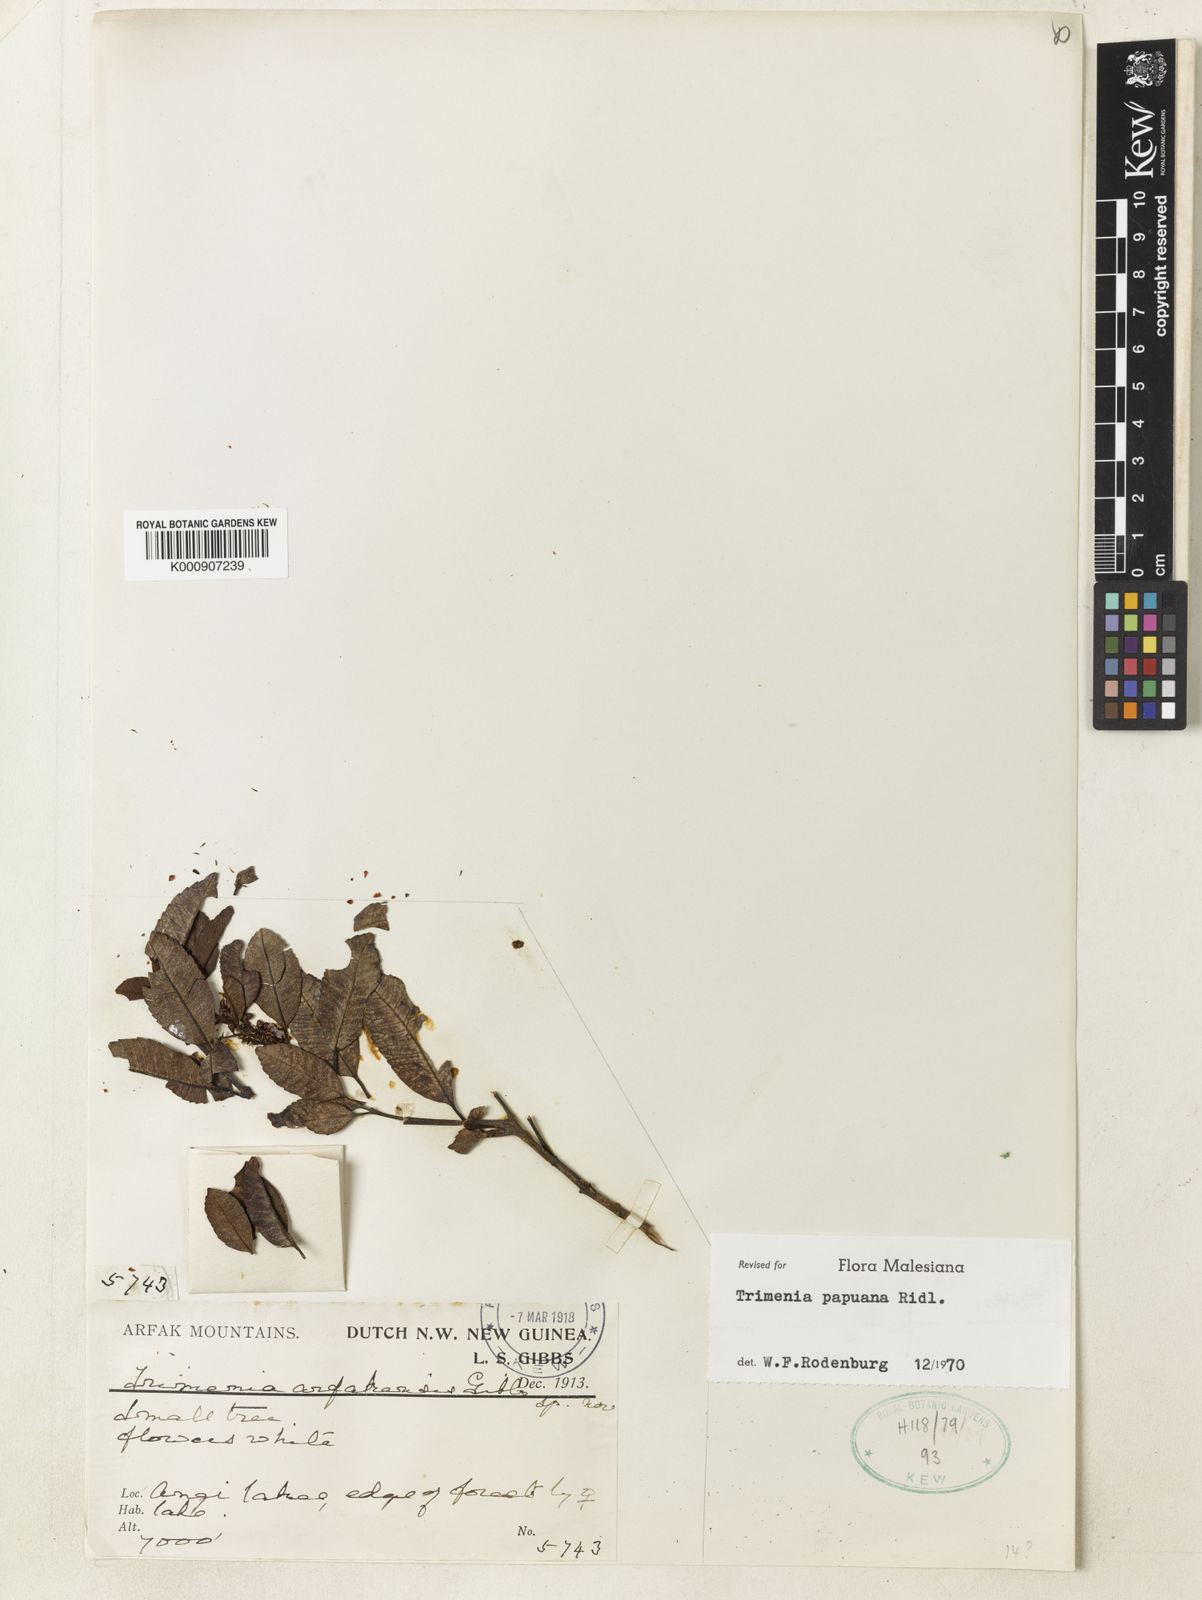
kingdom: Plantae
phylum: Tracheophyta
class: Magnoliopsida
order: Austrobaileyales
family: Trimeniaceae
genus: Trimenia
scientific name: Trimenia papuana
